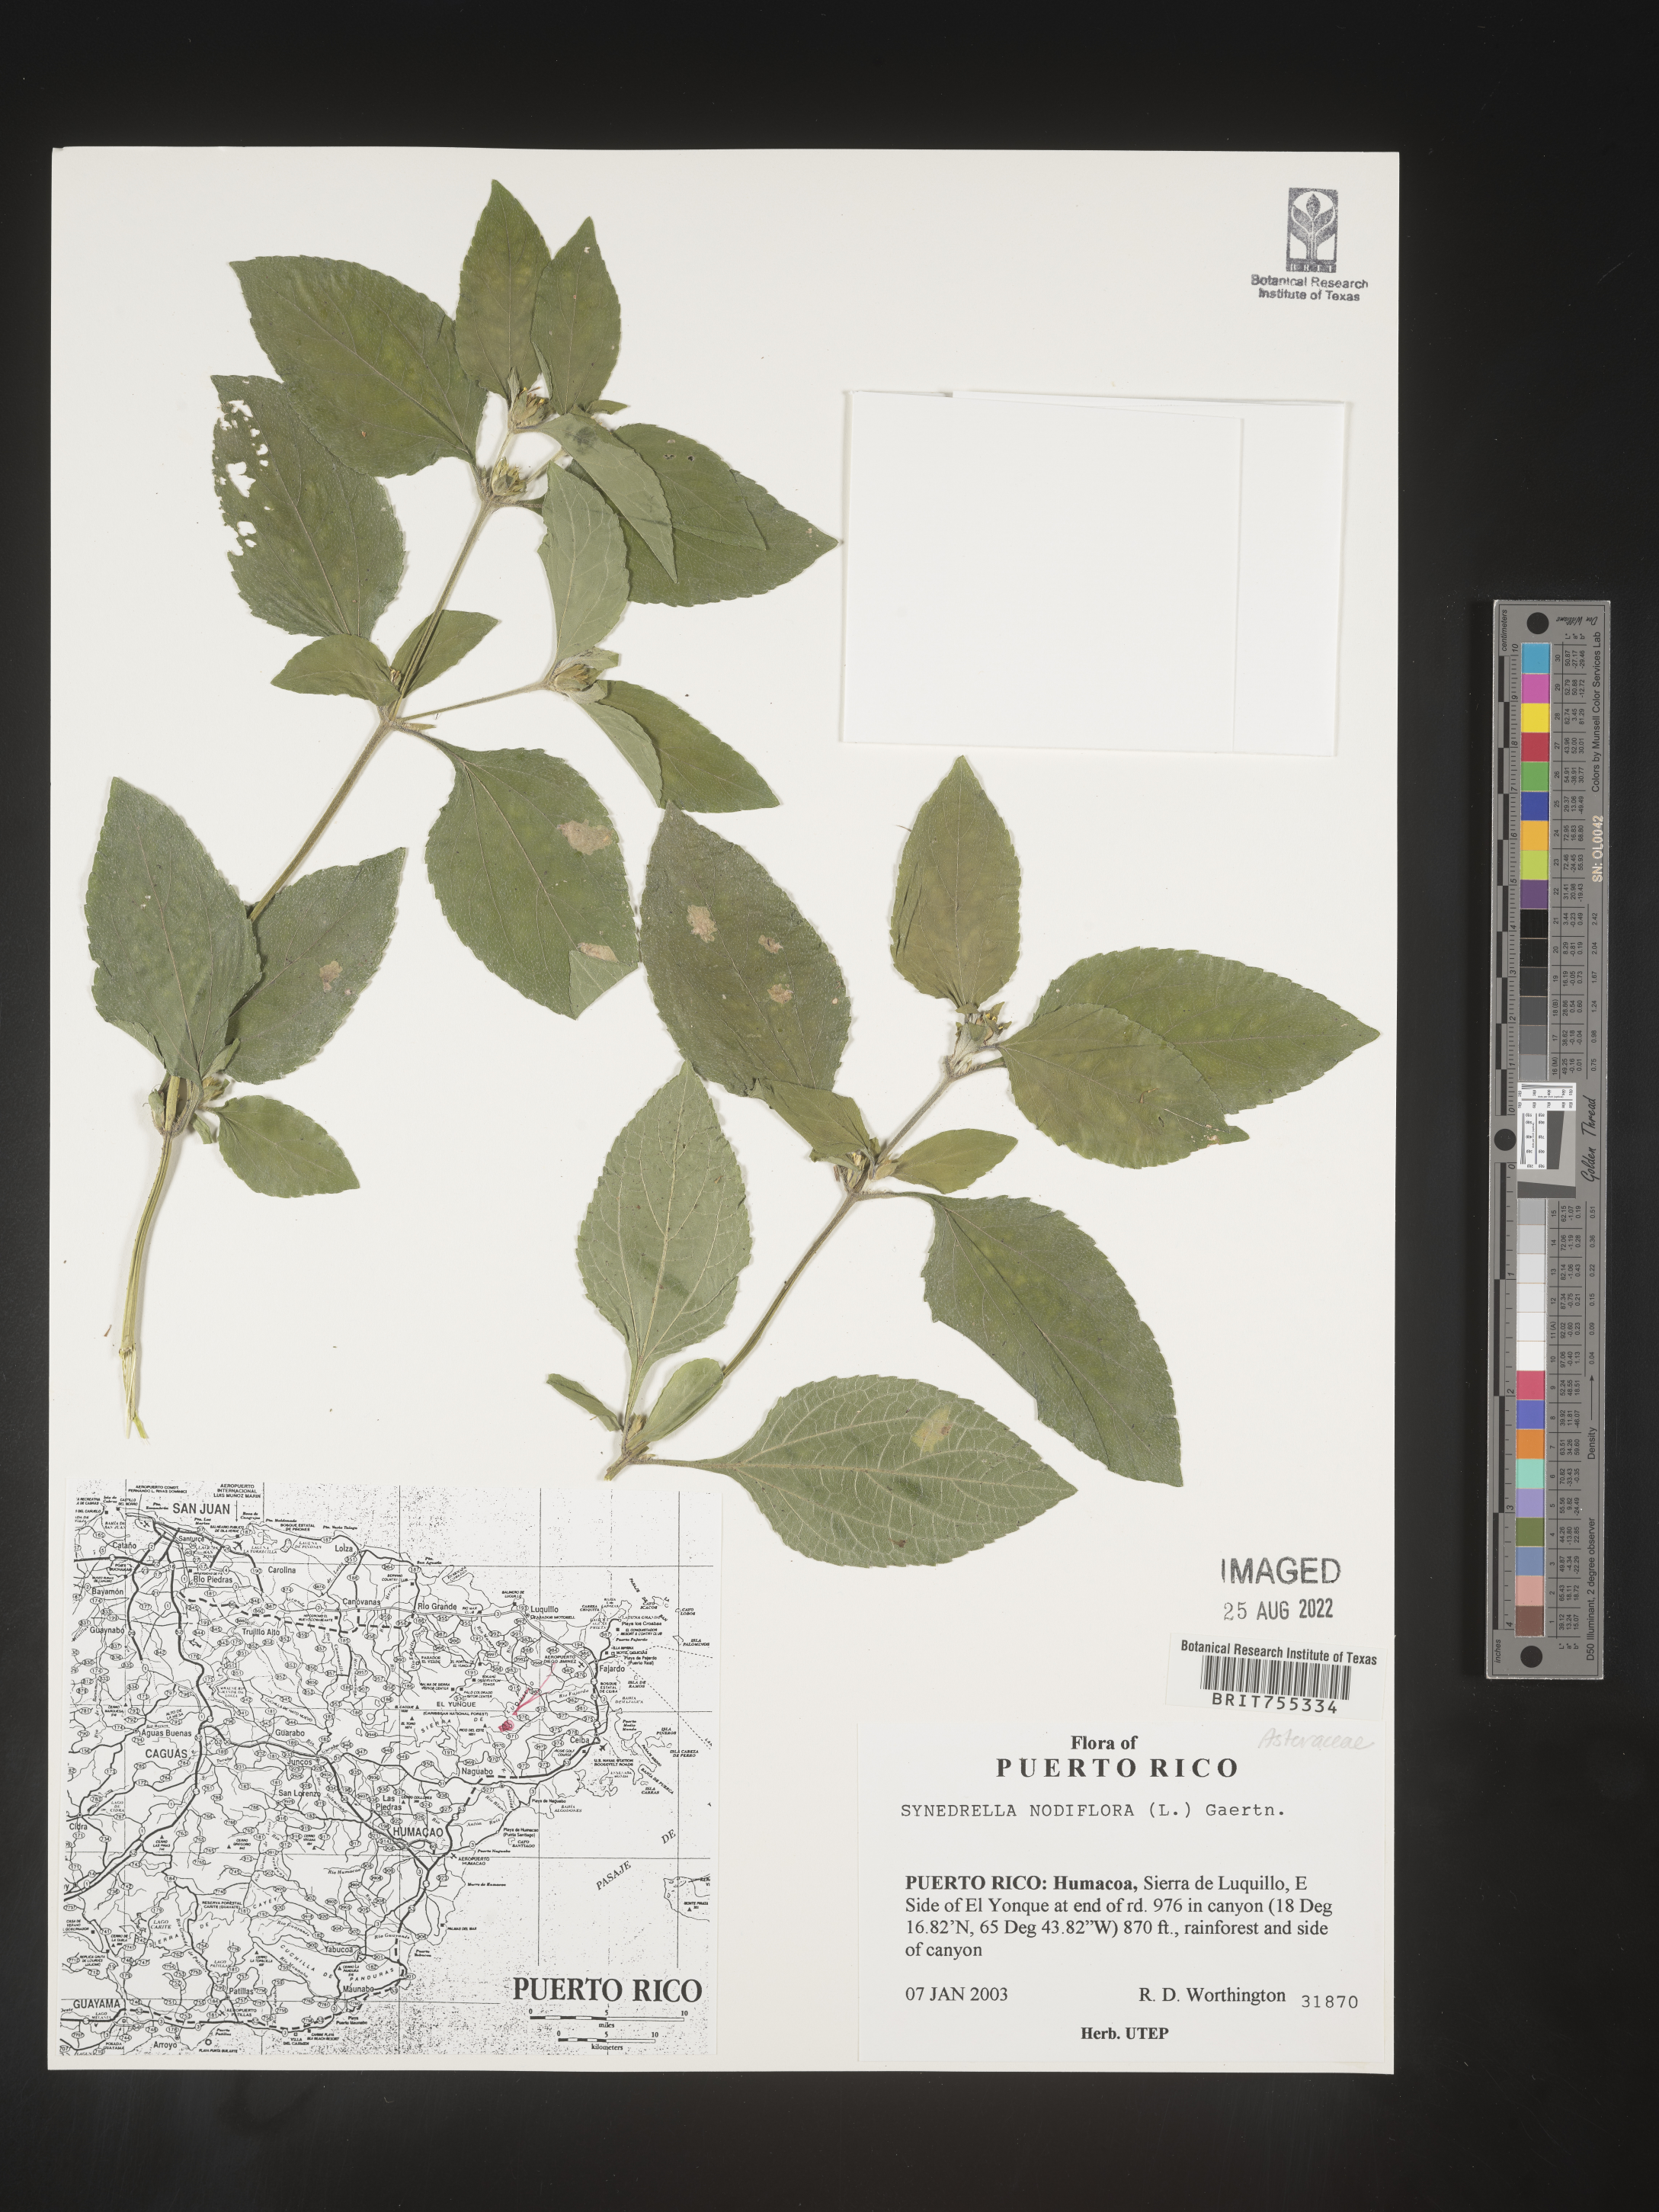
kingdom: Plantae
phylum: Tracheophyta
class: Magnoliopsida
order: Asterales
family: Asteraceae
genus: Synedrella
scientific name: Synedrella
